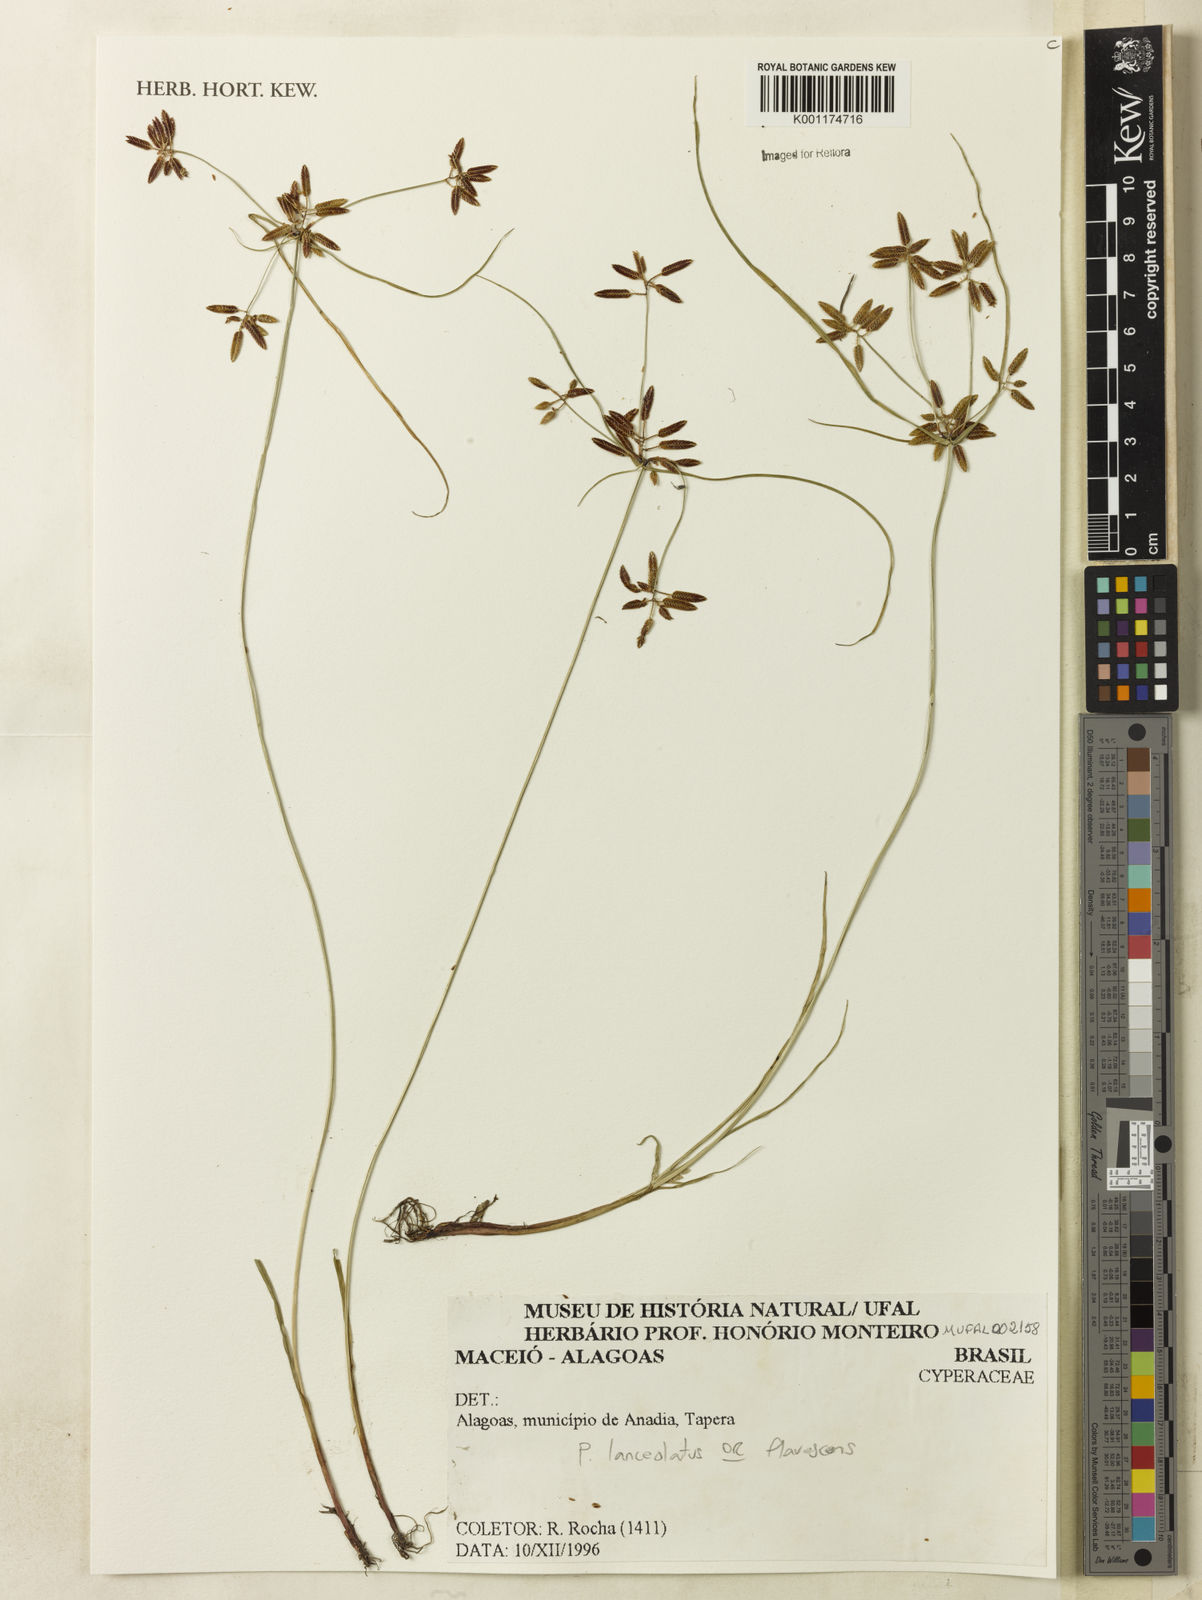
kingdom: Plantae
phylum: Tracheophyta
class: Liliopsida
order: Poales
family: Cyperaceae
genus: Cyperus
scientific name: Cyperus flavescens
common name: Yellow galingale
